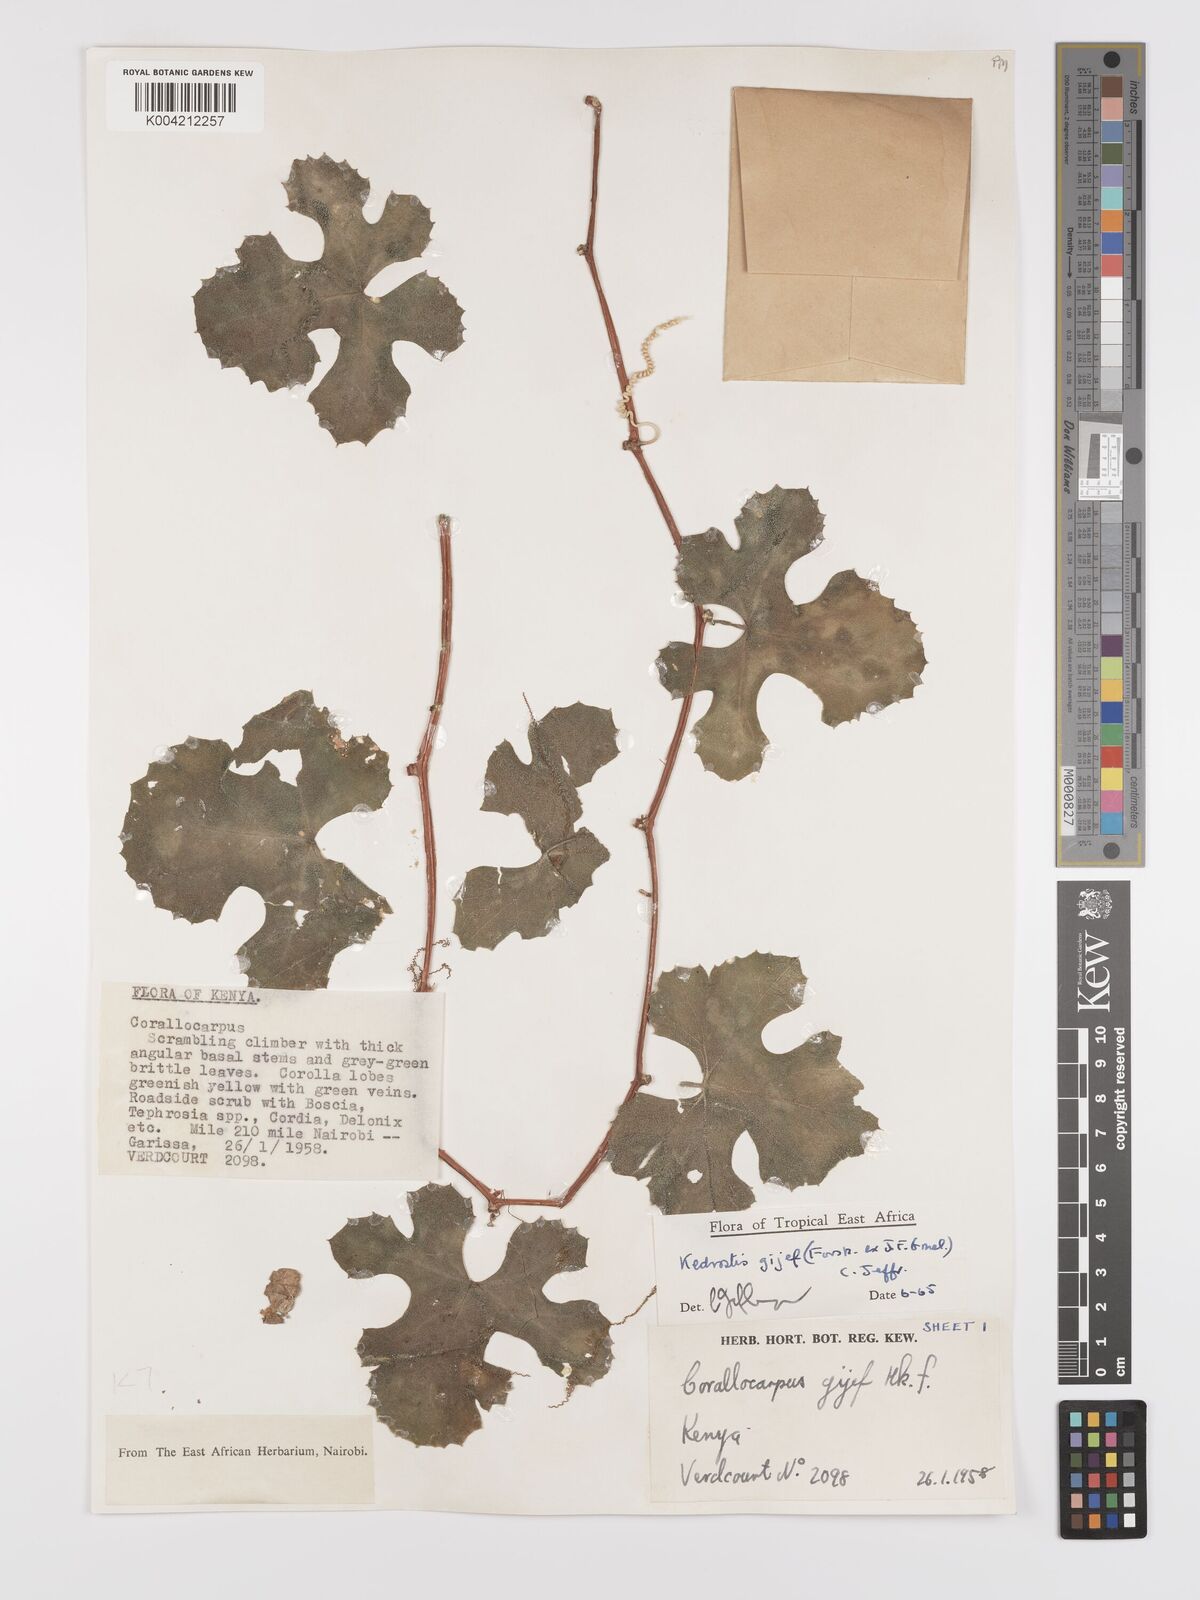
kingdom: Plantae
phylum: Tracheophyta
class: Magnoliopsida
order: Cucurbitales
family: Cucurbitaceae
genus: Kedrostis
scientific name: Kedrostis gijef
